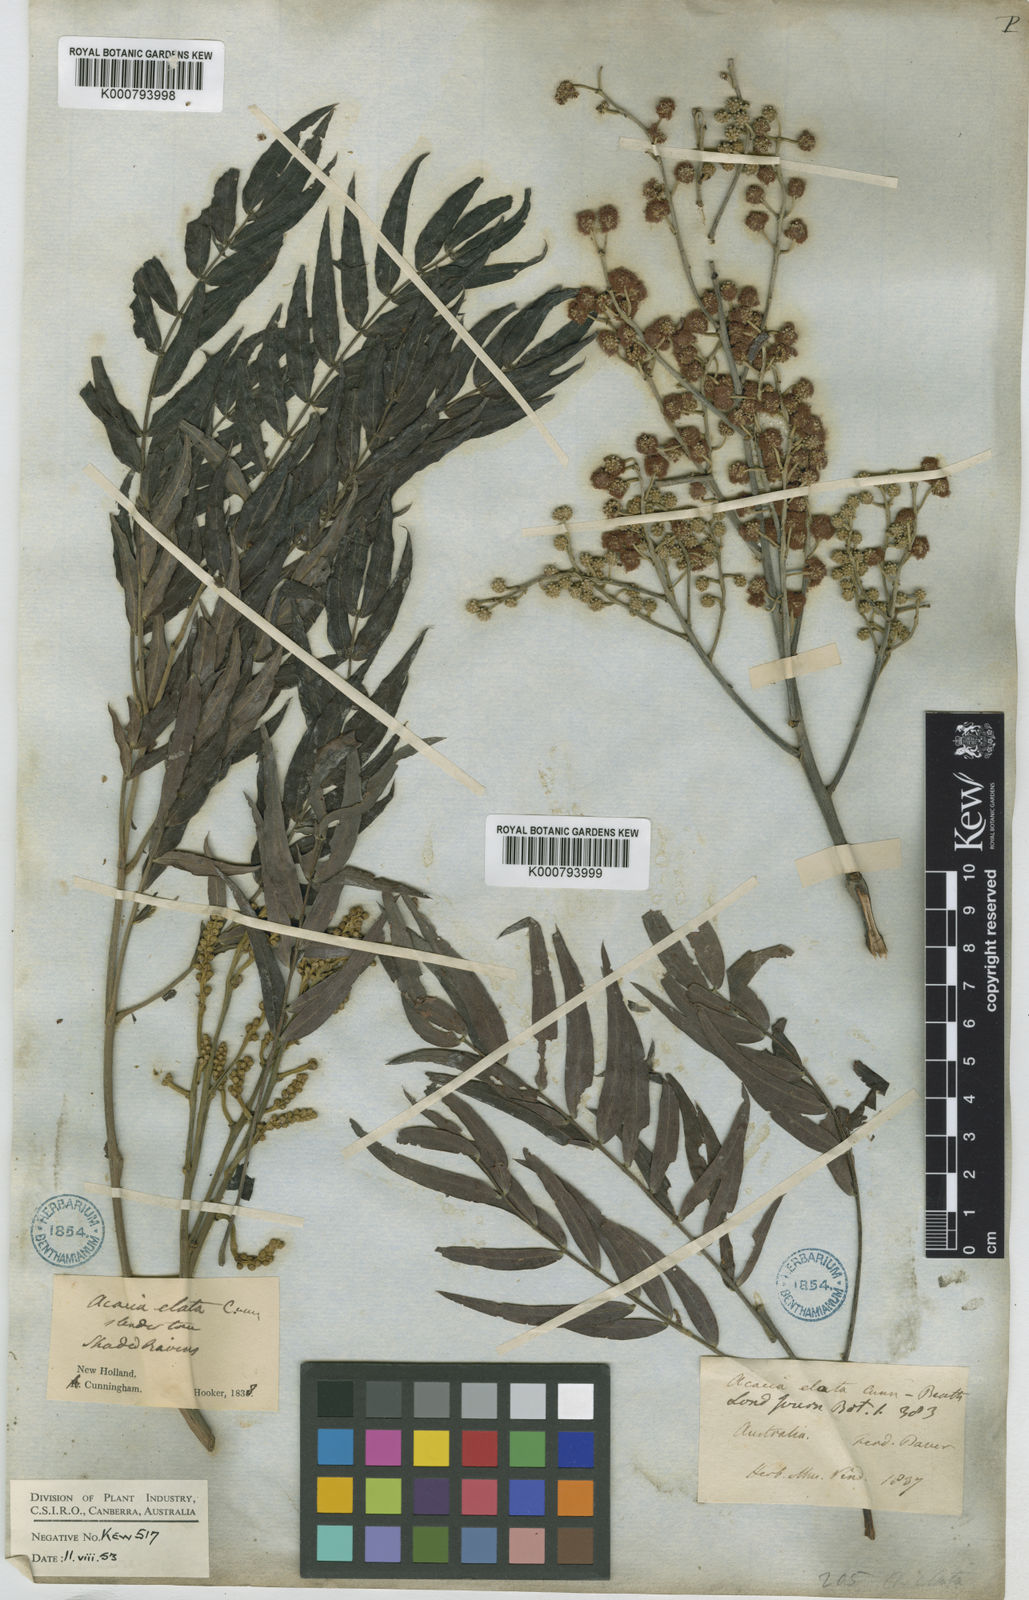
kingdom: Plantae
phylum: Tracheophyta
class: Magnoliopsida
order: Fabales
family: Fabaceae
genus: Acacia
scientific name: Acacia elata
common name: Cedar wattle
